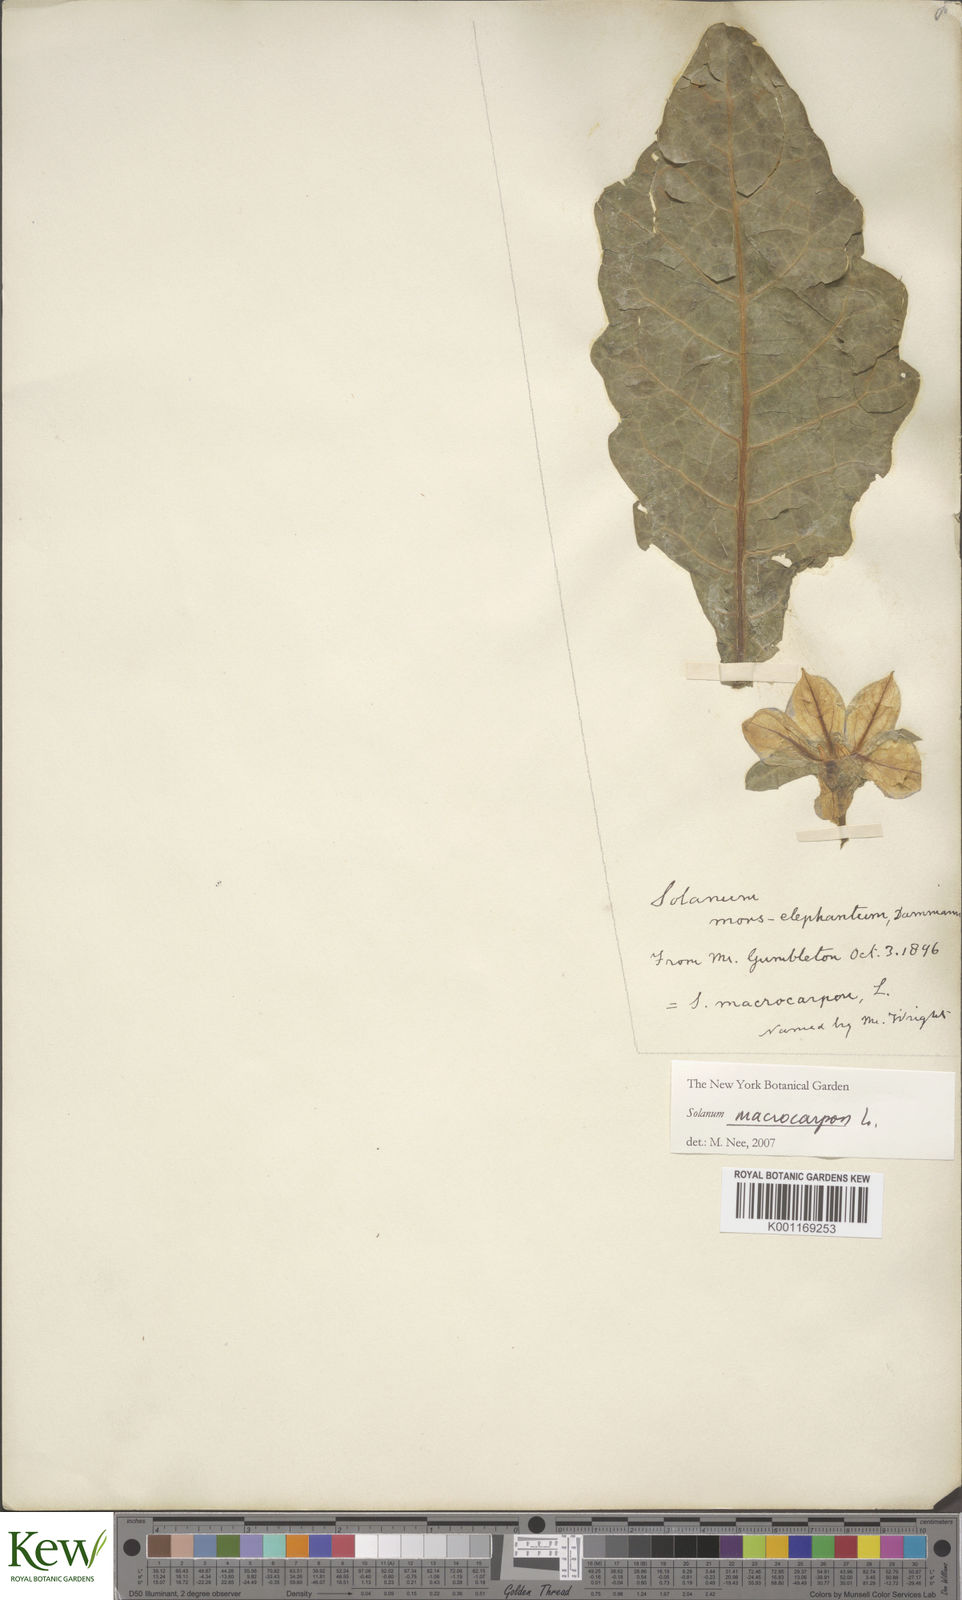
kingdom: Plantae
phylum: Tracheophyta
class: Magnoliopsida
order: Solanales
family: Solanaceae
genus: Solanum
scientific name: Solanum macrocarpon
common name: African eggplant
